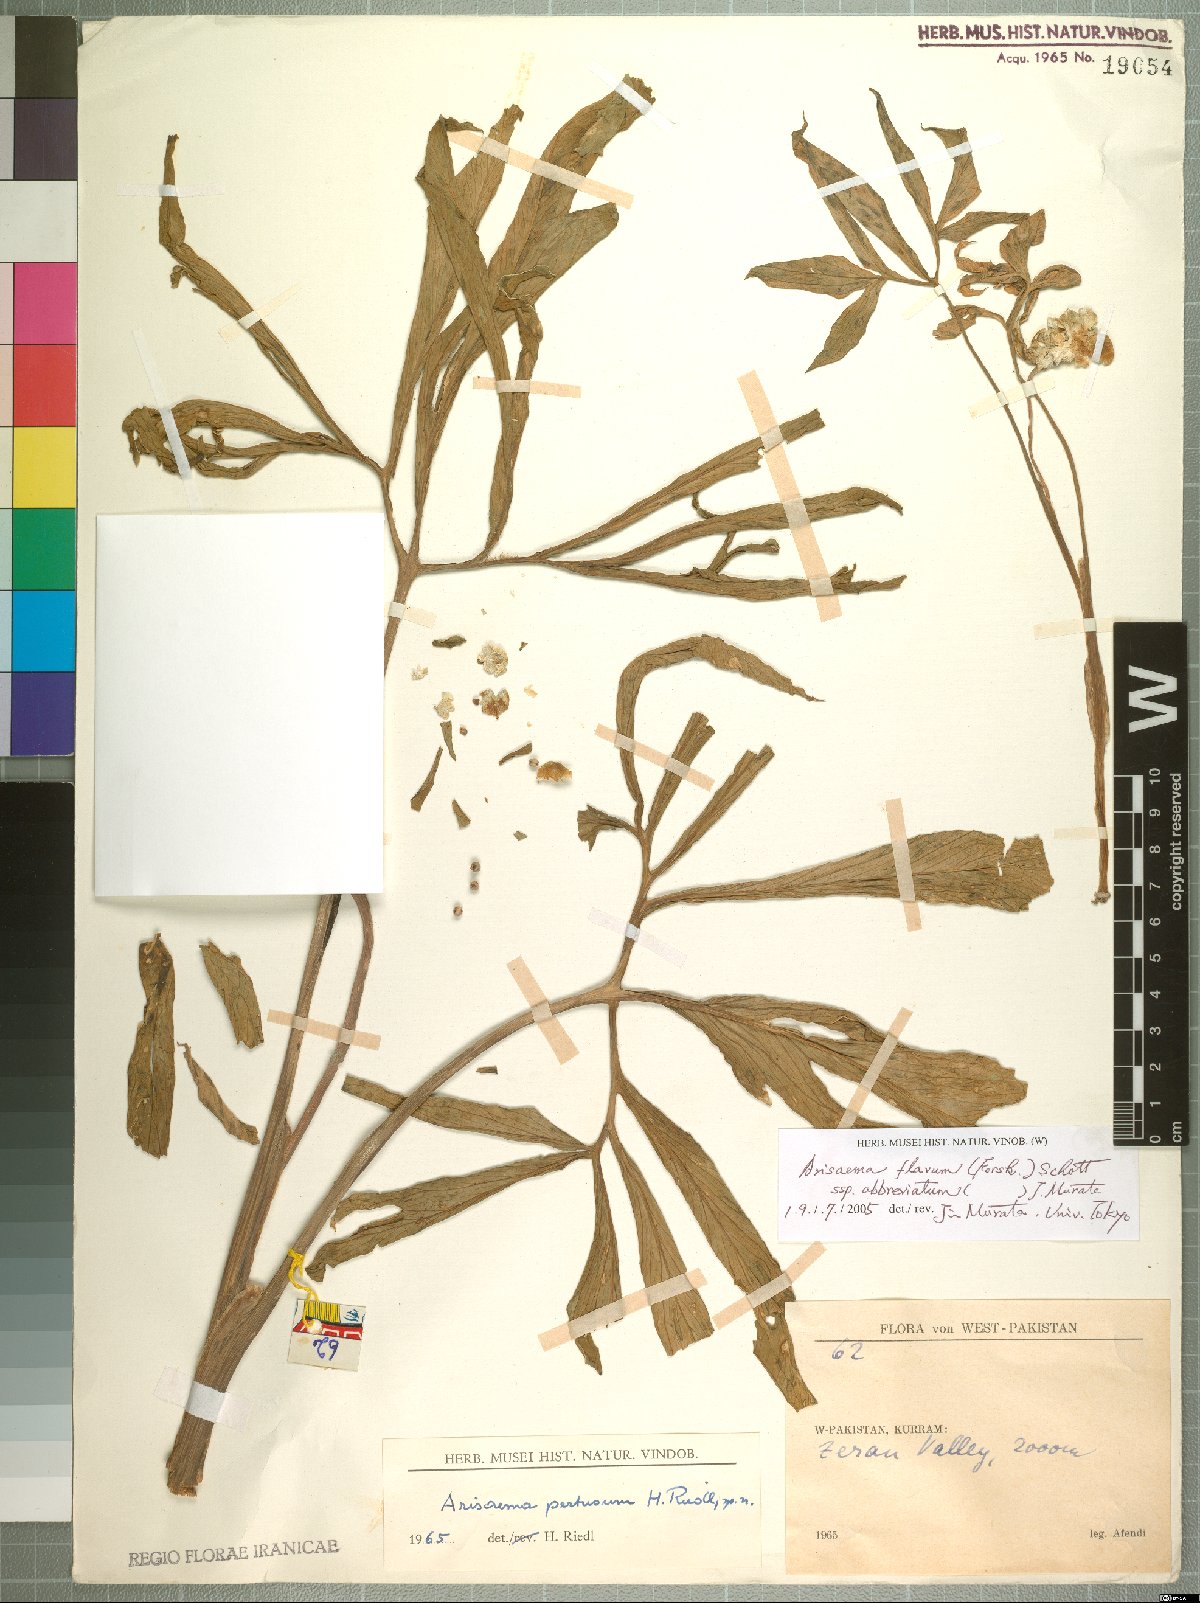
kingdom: Plantae
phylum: Tracheophyta
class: Liliopsida
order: Alismatales
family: Araceae
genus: Arisaema
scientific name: Arisaema flavum
